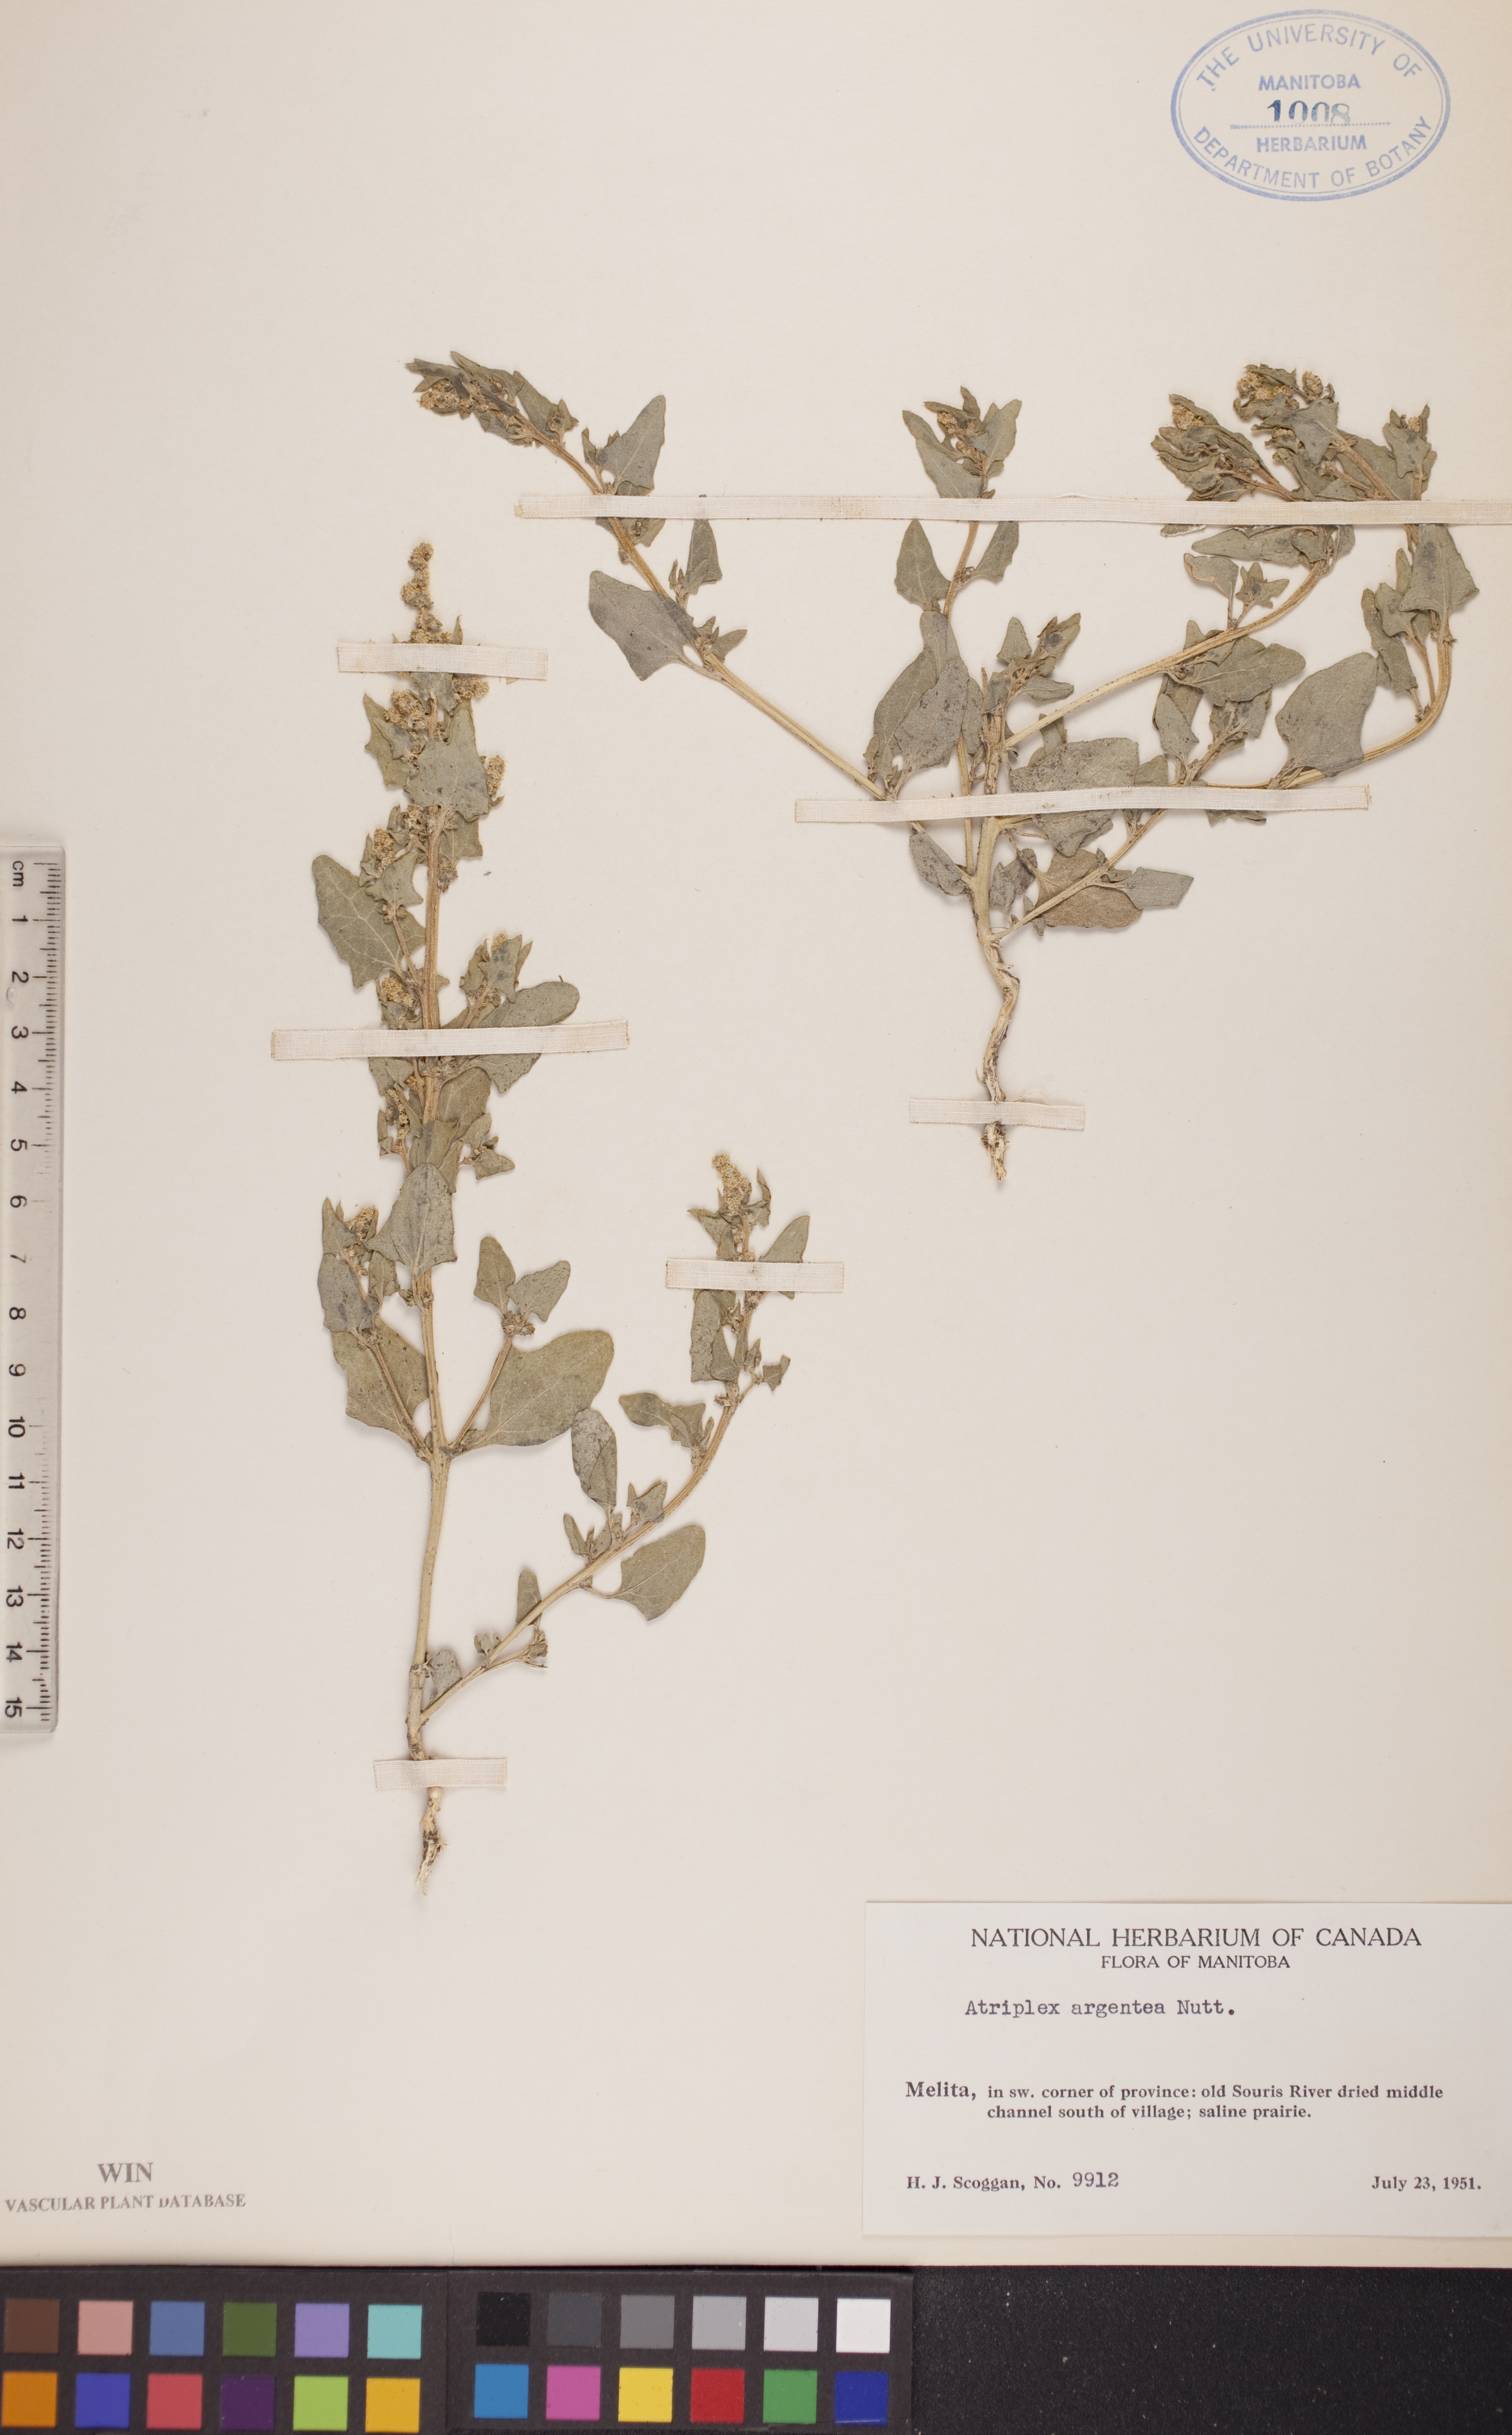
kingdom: Plantae
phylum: Tracheophyta
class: Magnoliopsida
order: Caryophyllales
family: Amaranthaceae
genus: Atriplex
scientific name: Atriplex argentea
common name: Silverscale
